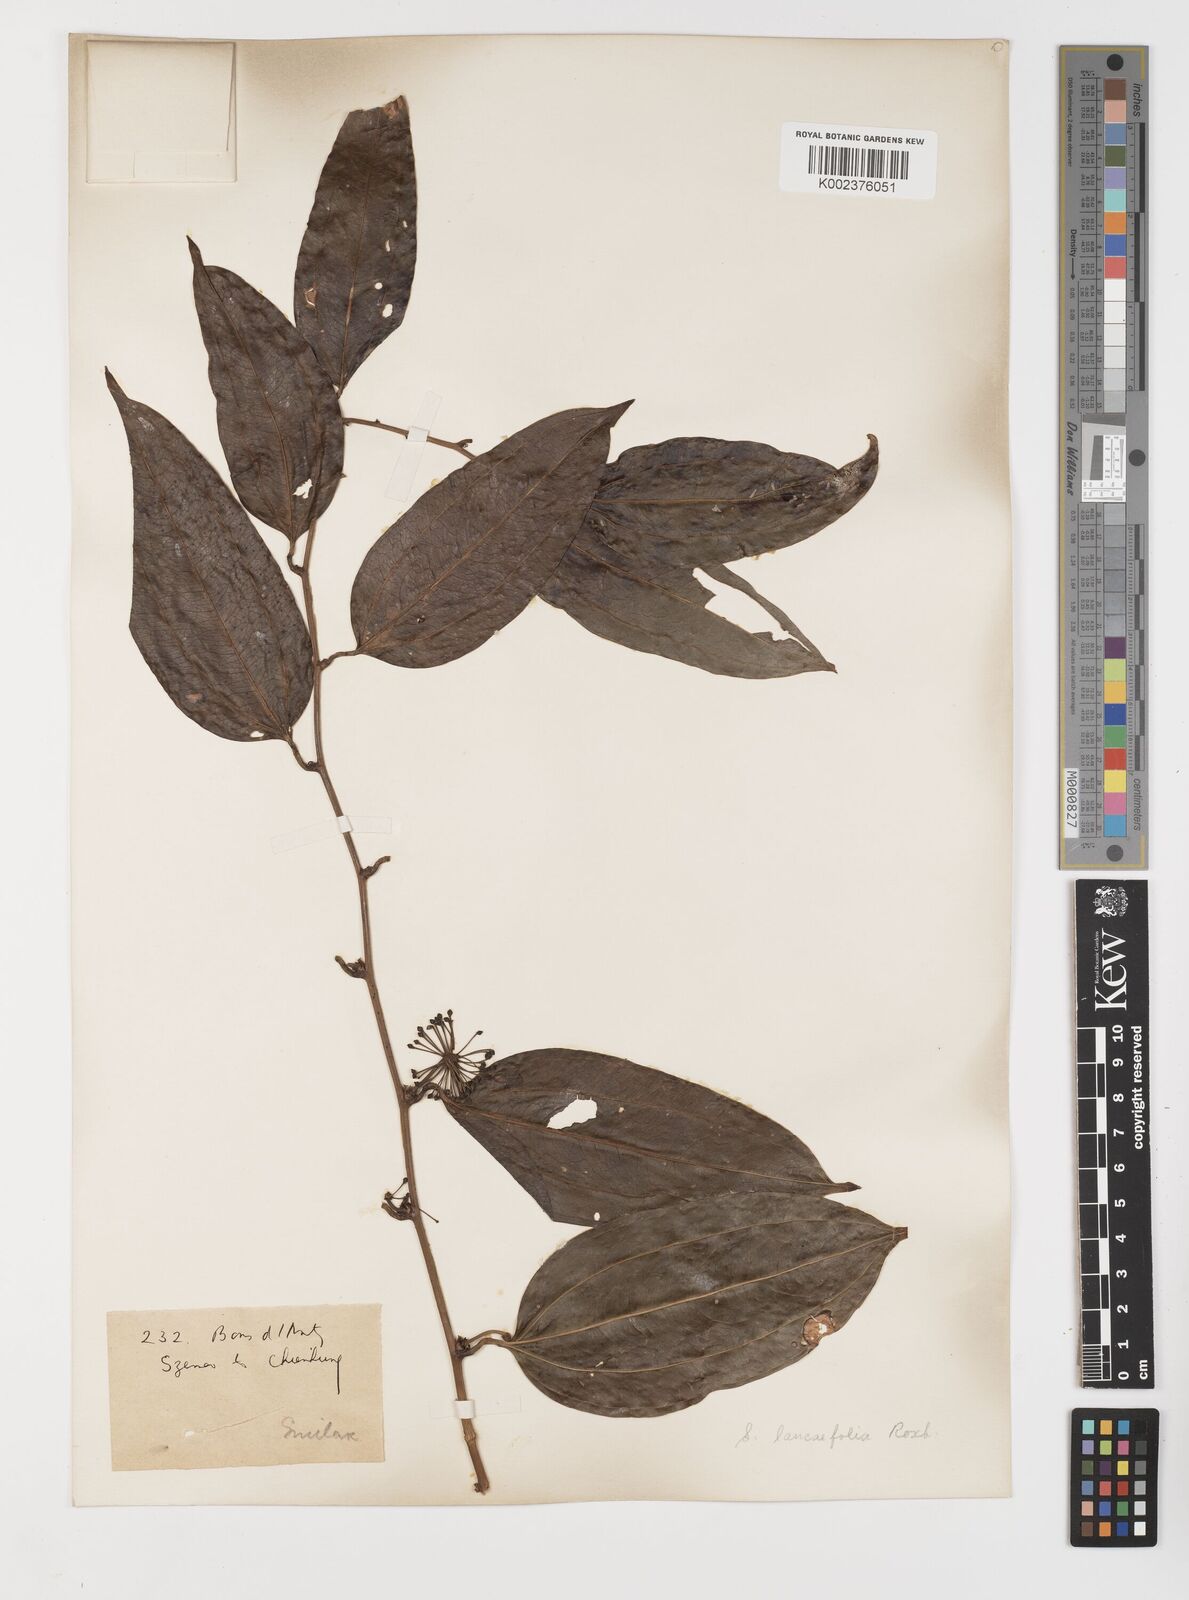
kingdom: Plantae
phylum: Tracheophyta
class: Liliopsida
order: Liliales
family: Smilacaceae
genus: Smilax
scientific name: Smilax lanceifolia
